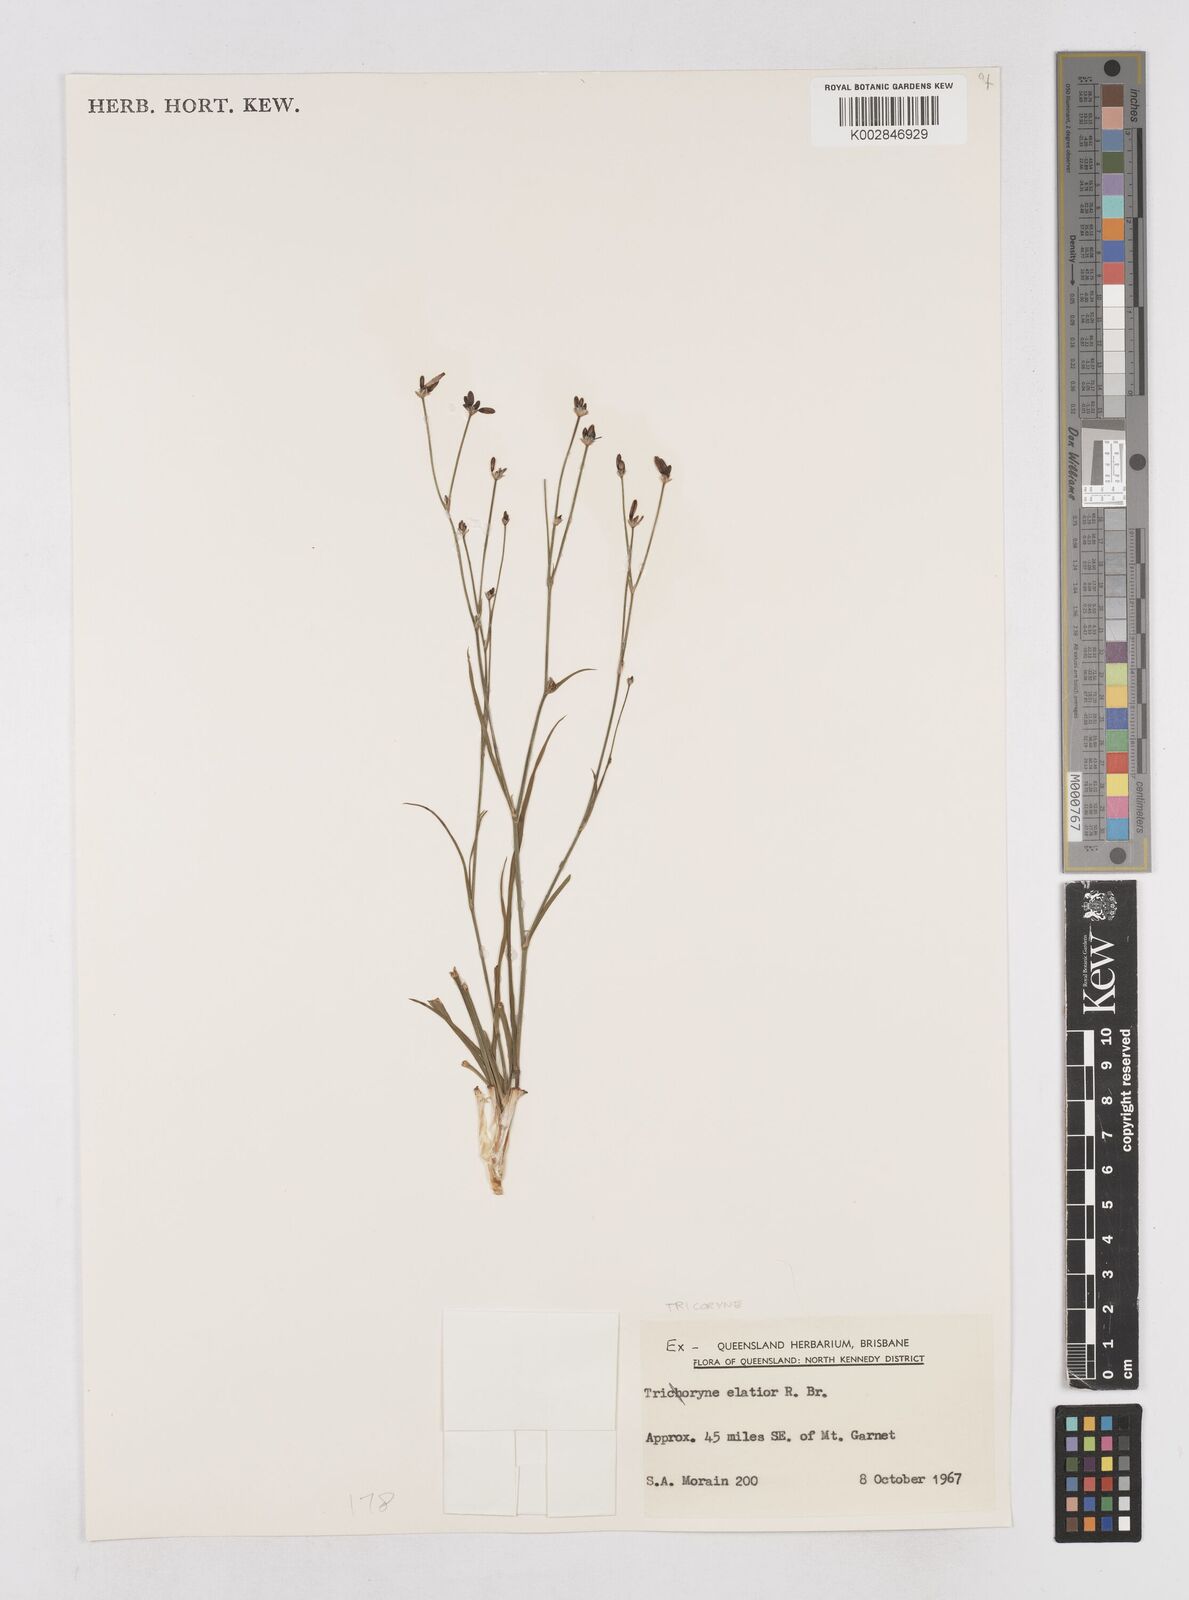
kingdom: Plantae
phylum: Tracheophyta
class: Liliopsida
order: Asparagales
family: Asphodelaceae
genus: Tricoryne
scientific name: Tricoryne elatior
